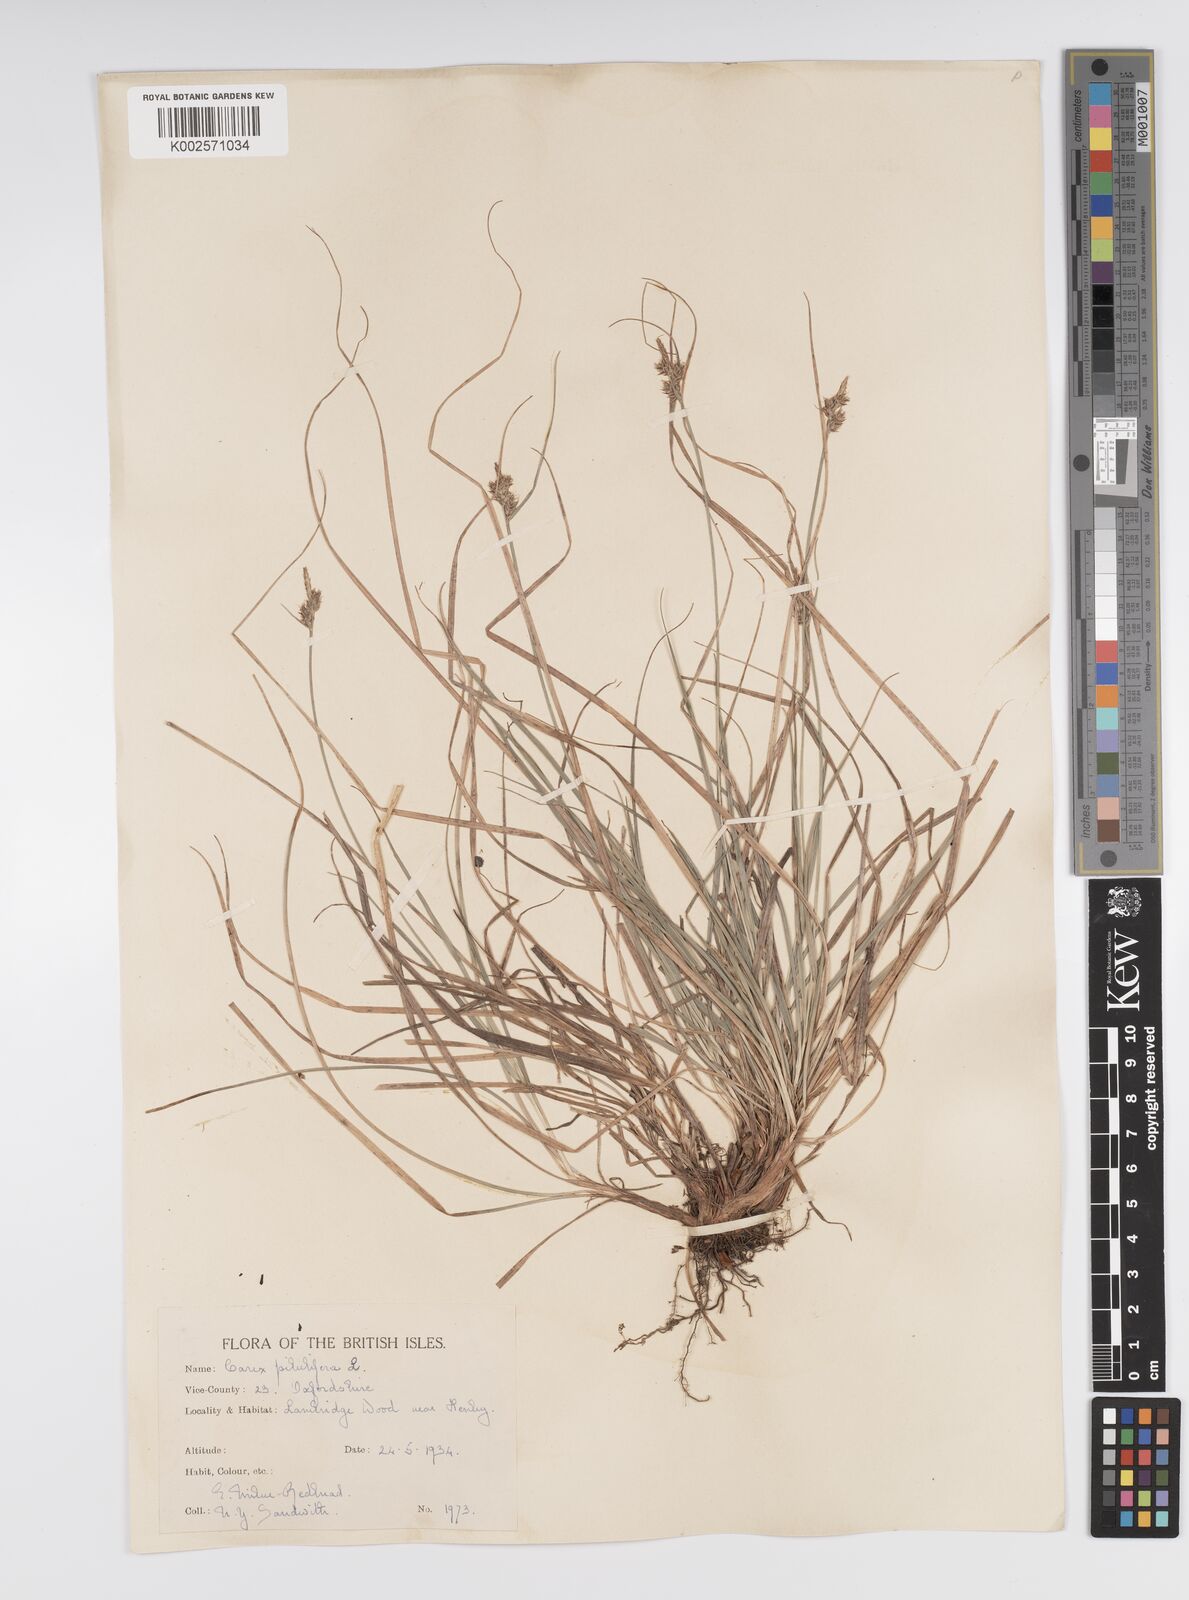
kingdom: Plantae
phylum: Tracheophyta
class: Liliopsida
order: Poales
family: Cyperaceae
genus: Carex
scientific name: Carex pilulifera
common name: Pill sedge
